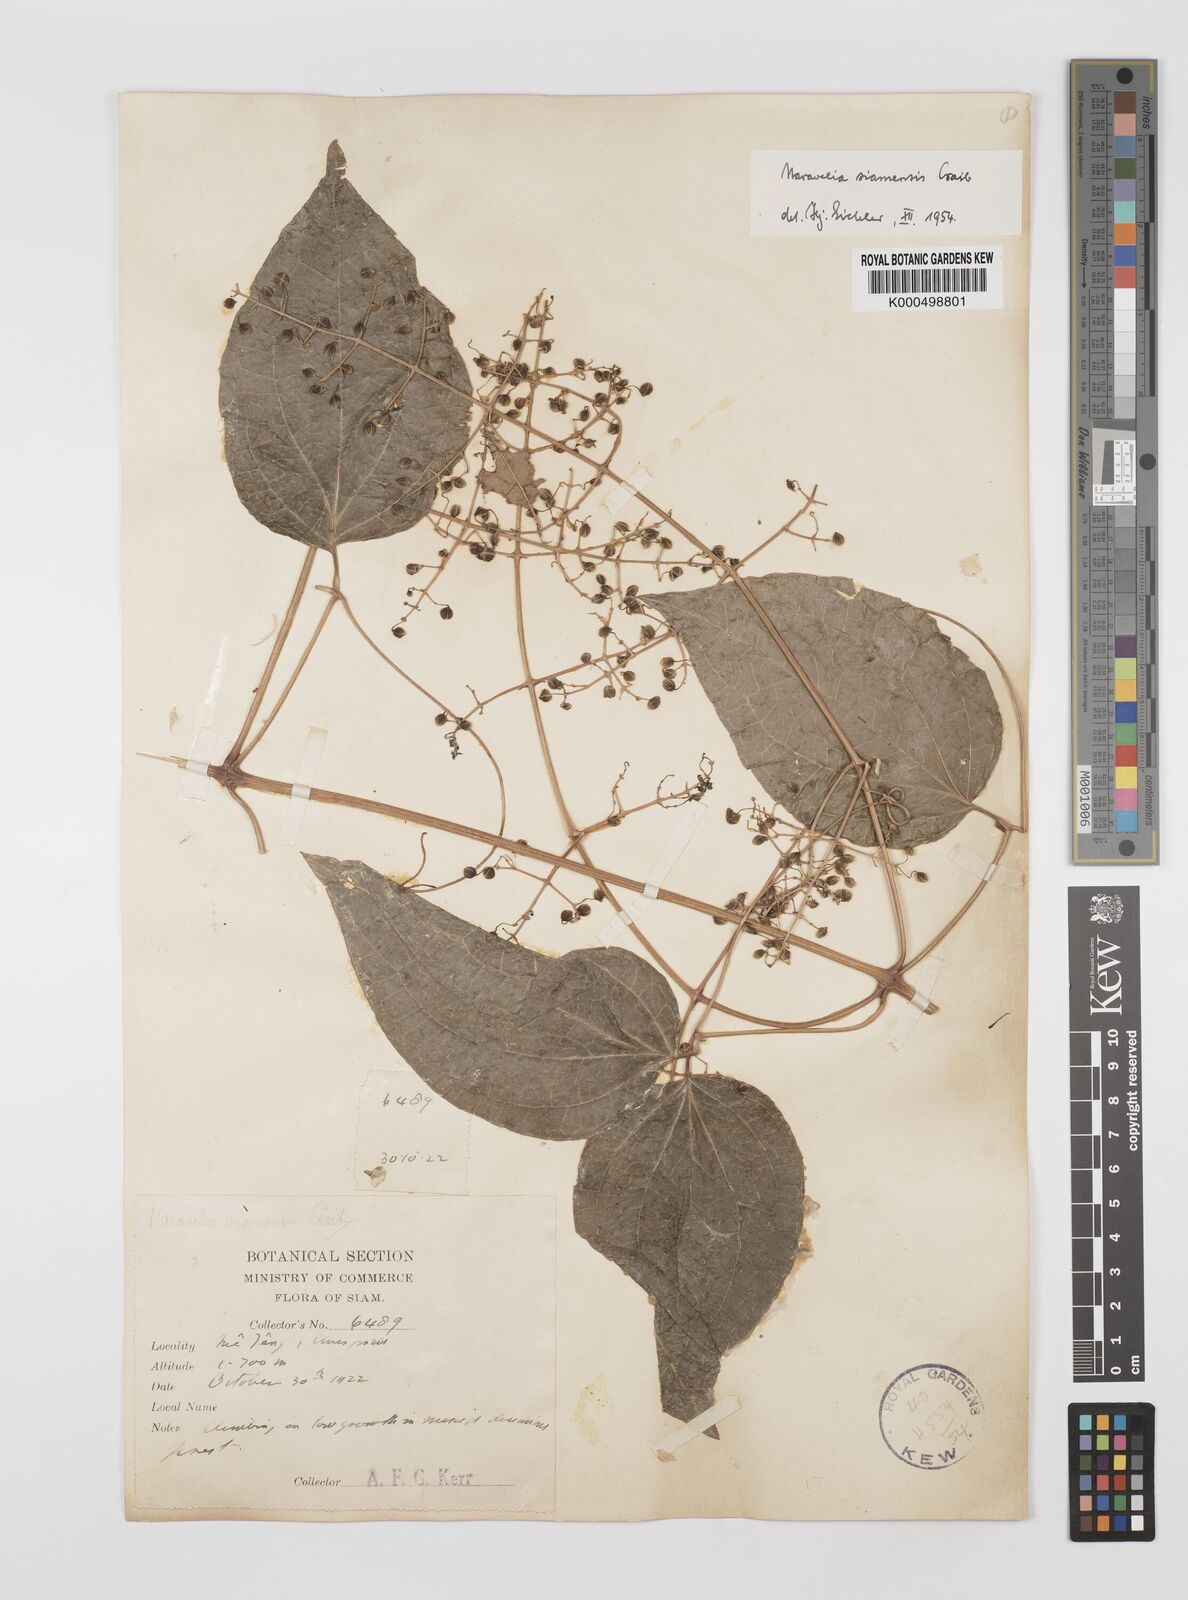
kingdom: Plantae
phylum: Tracheophyta
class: Magnoliopsida
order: Ranunculales
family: Ranunculaceae
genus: Clematis
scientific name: Clematis aureolata
